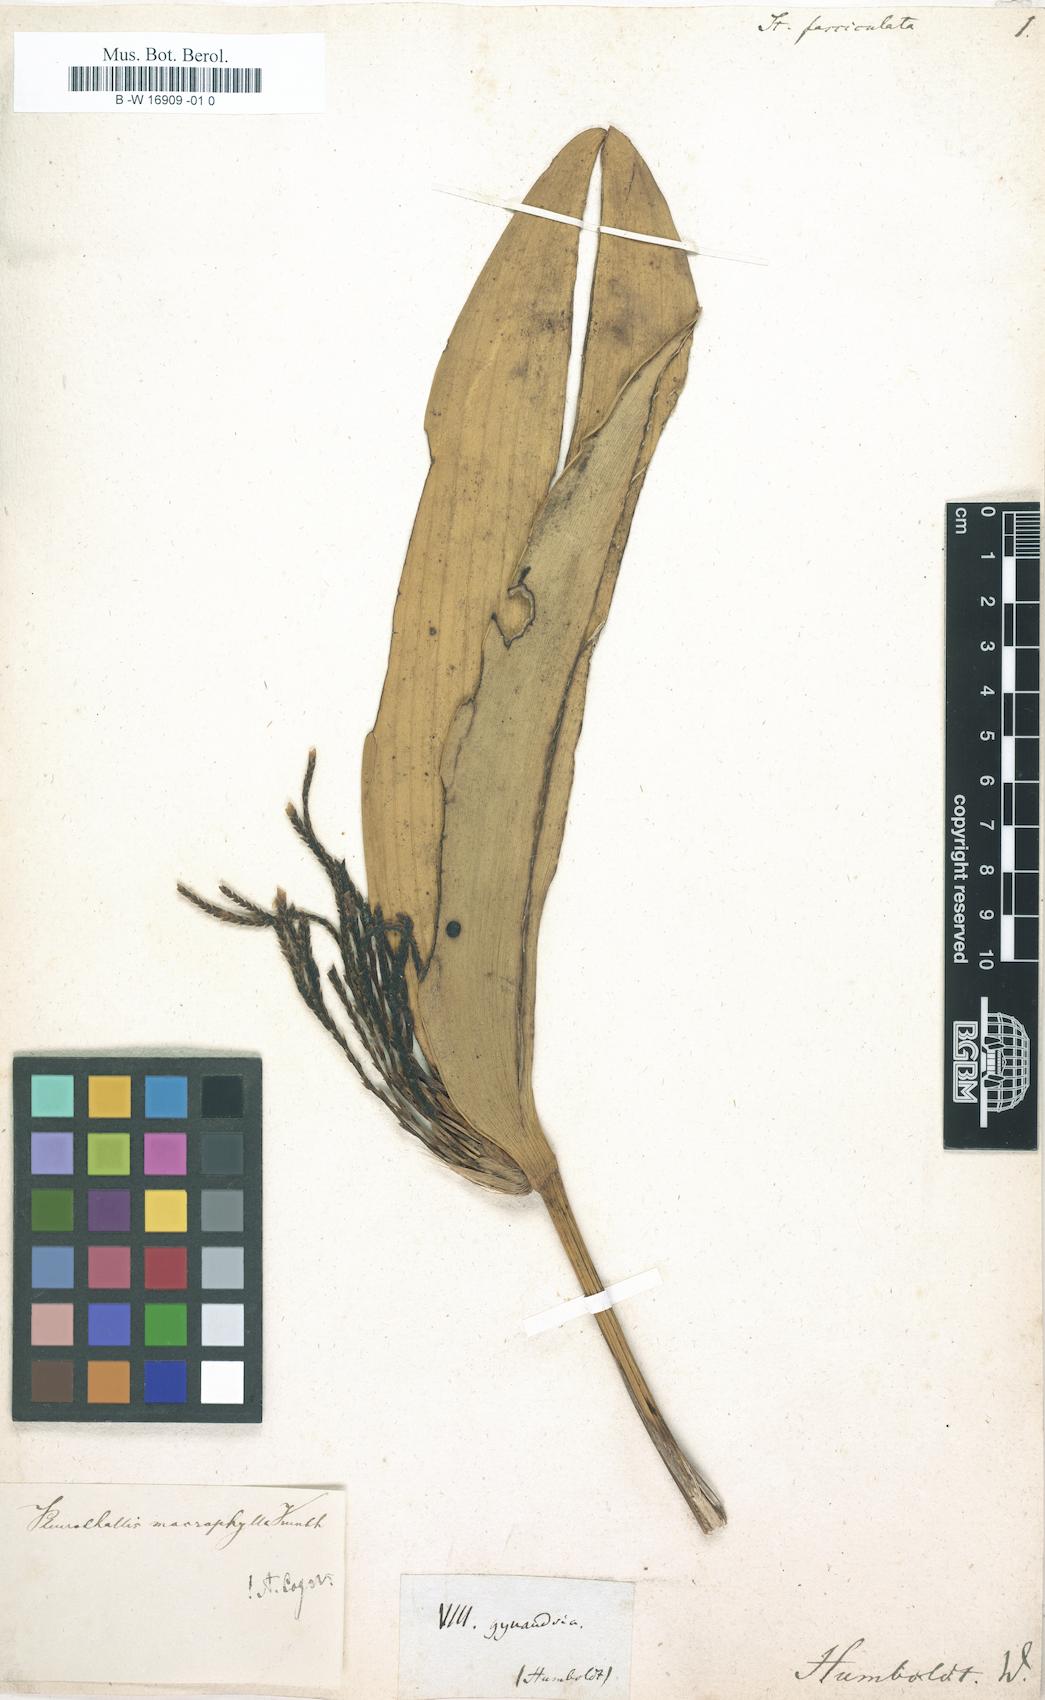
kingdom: Plantae
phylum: Tracheophyta
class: Liliopsida
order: Asparagales
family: Orchidaceae
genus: Stelis
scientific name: Stelis fasciculata
